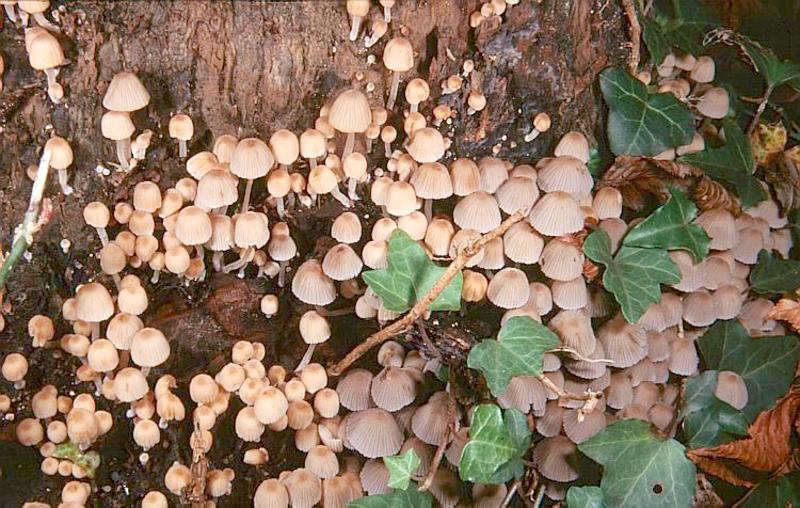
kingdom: Fungi
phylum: Basidiomycota
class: Agaricomycetes
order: Agaricales
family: Psathyrellaceae
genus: Coprinellus
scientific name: Coprinellus disseminatus
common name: Fairies' bonnets
